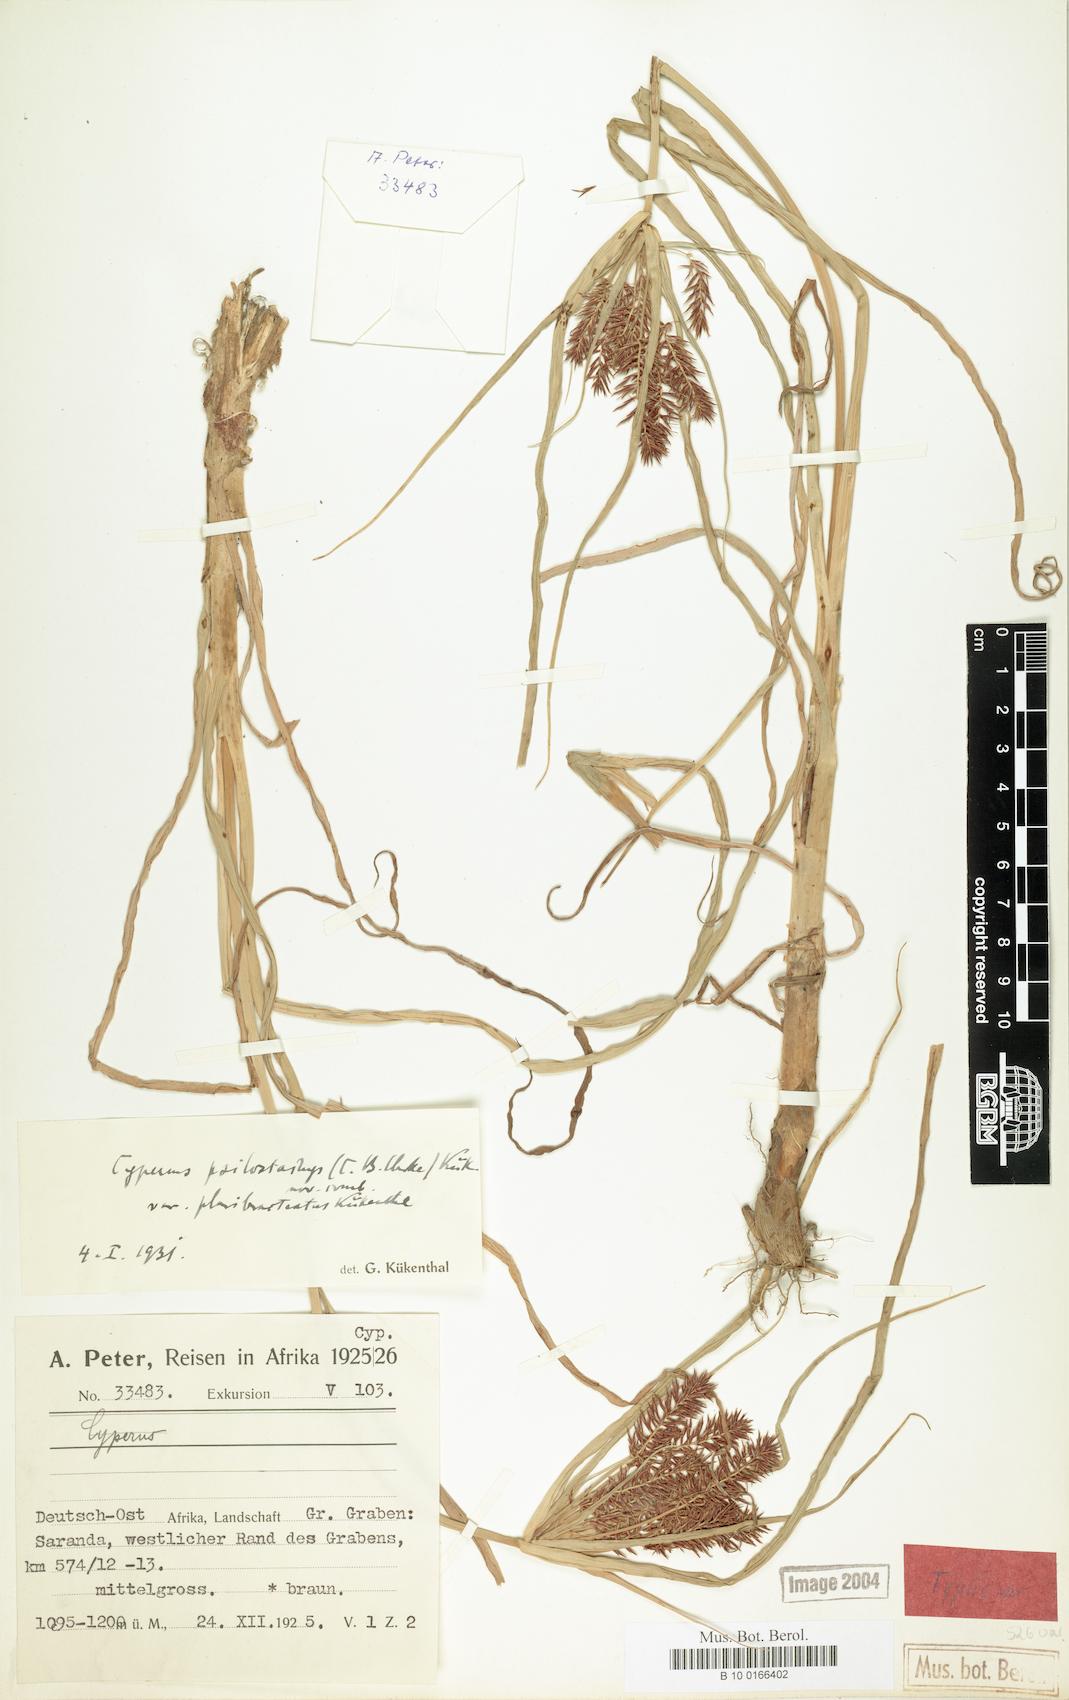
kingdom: Plantae
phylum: Tracheophyta
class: Liliopsida
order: Poales
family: Cyperaceae
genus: Cyperus
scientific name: Cyperus trigonellus
